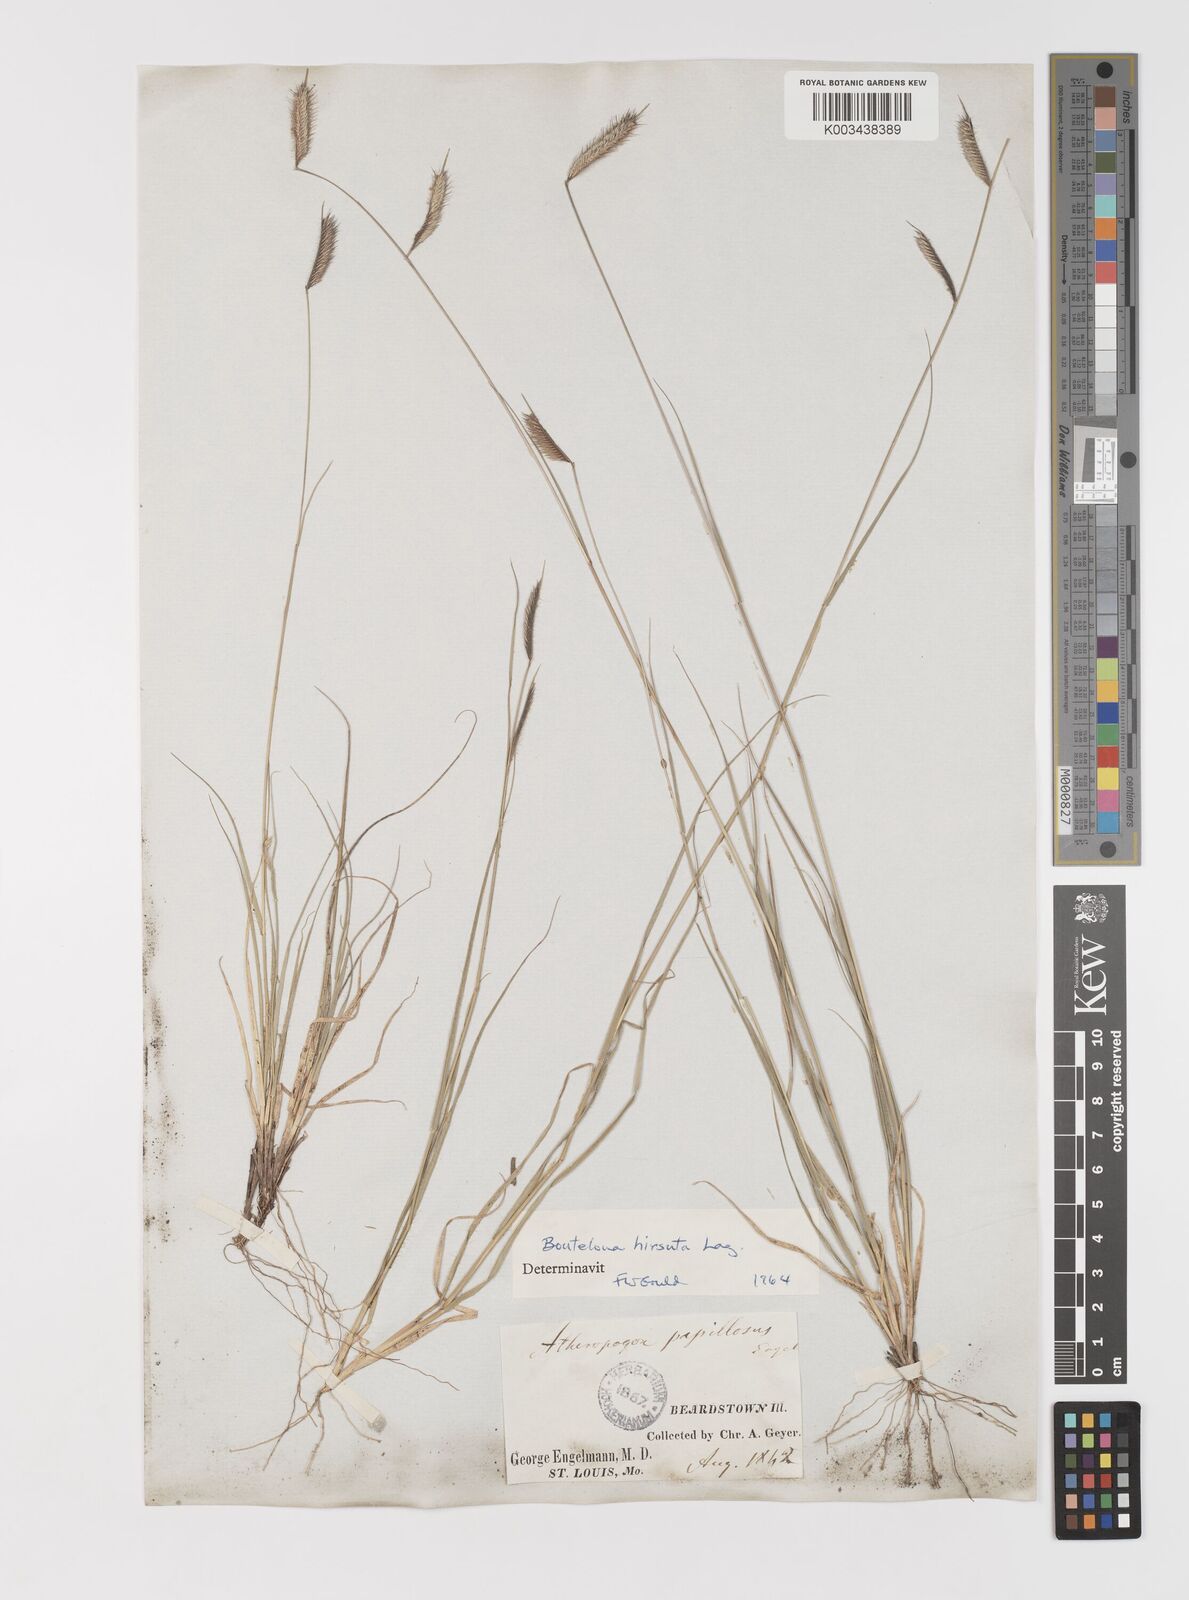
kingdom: Plantae
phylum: Tracheophyta
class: Liliopsida
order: Poales
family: Poaceae
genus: Bouteloua
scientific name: Bouteloua hirsuta
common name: Hairy grama
